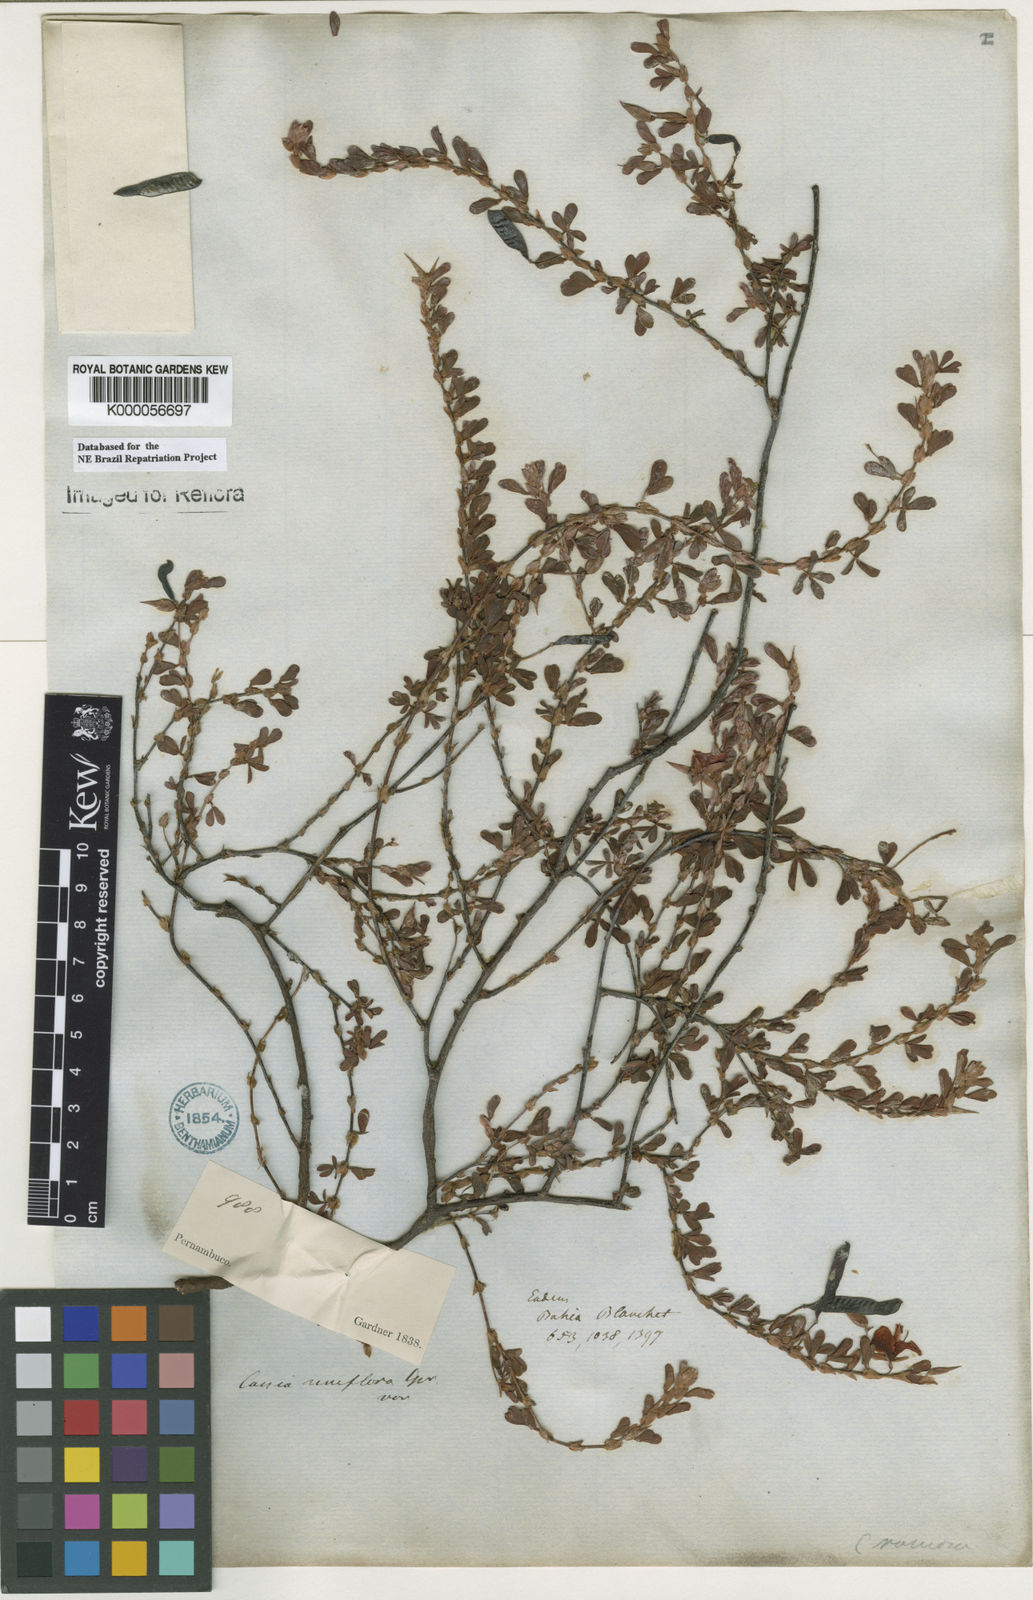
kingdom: Plantae
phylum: Tracheophyta
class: Magnoliopsida
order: Fabales
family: Fabaceae
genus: Chamaecrista
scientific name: Chamaecrista ramosa
